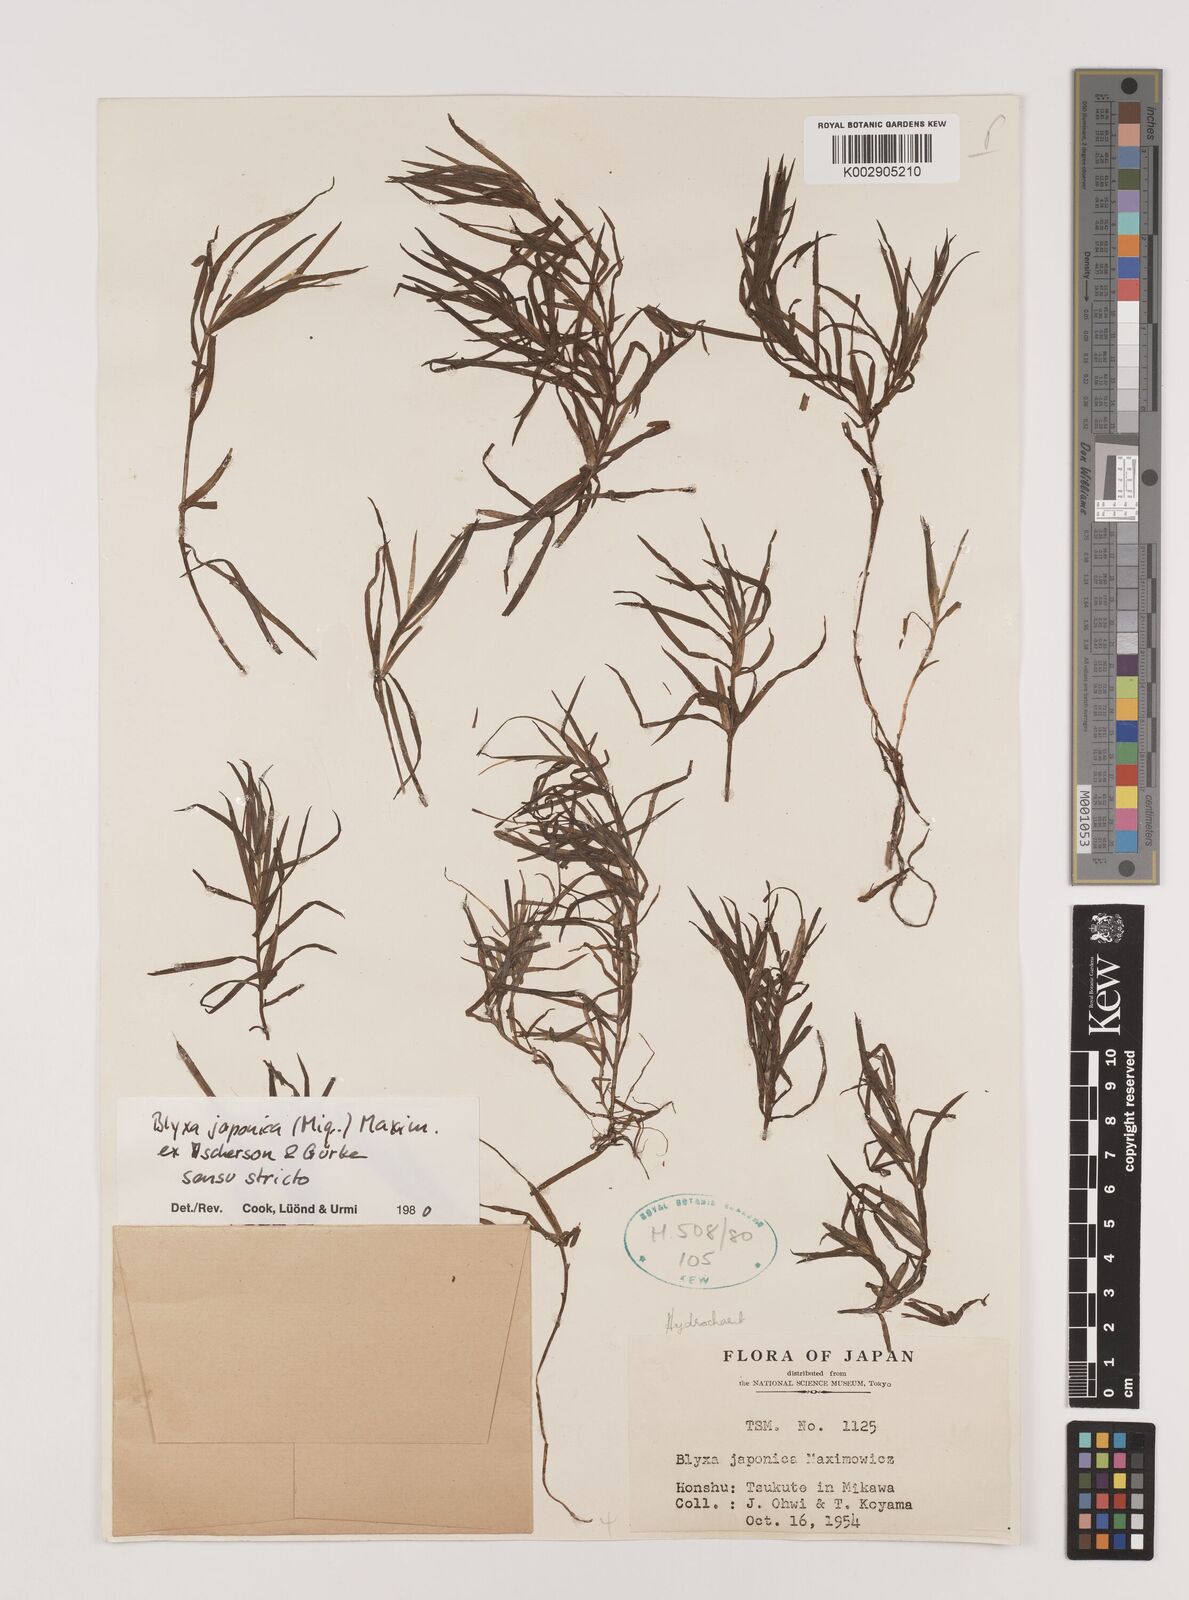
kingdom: Plantae
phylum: Tracheophyta
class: Liliopsida
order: Alismatales
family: Hydrocharitaceae
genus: Blyxa
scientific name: Blyxa japonica
